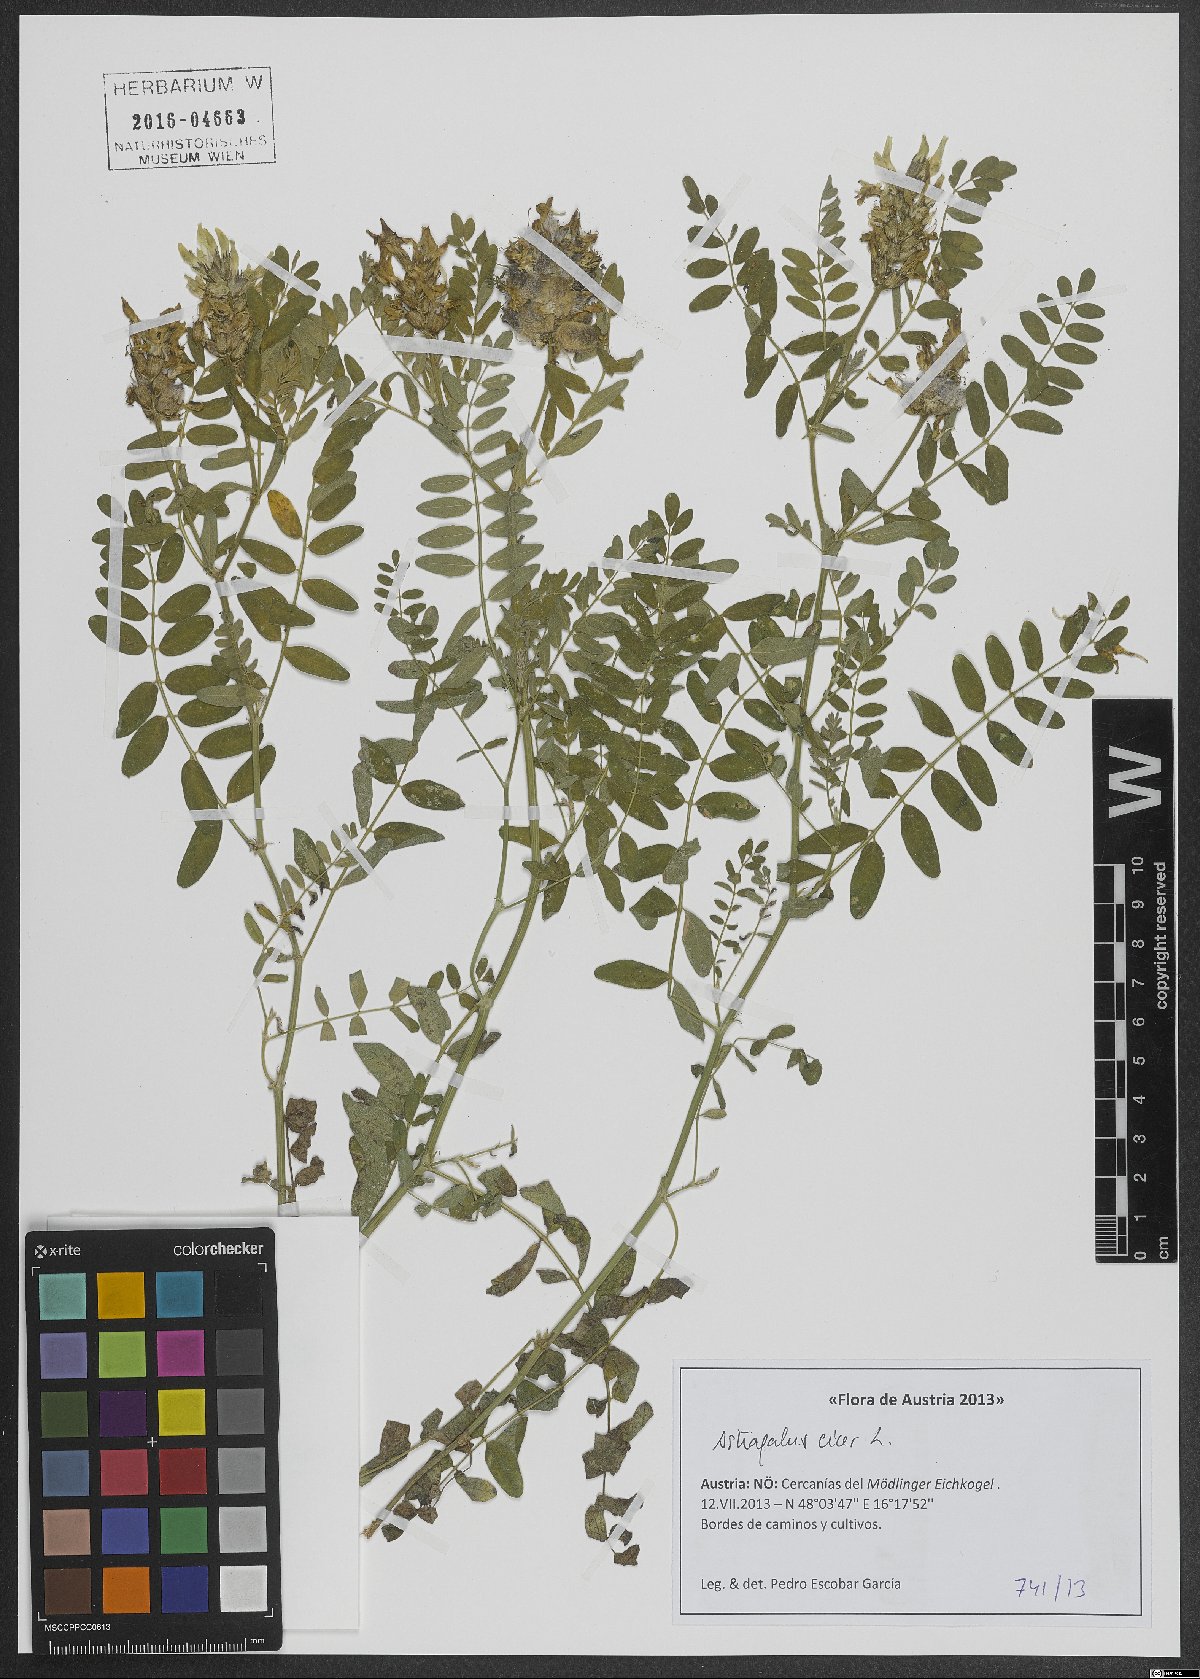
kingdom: Plantae
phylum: Tracheophyta
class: Magnoliopsida
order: Fabales
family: Fabaceae
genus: Astragalus
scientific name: Astragalus cicer
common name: Chick-pea milk-vetch
